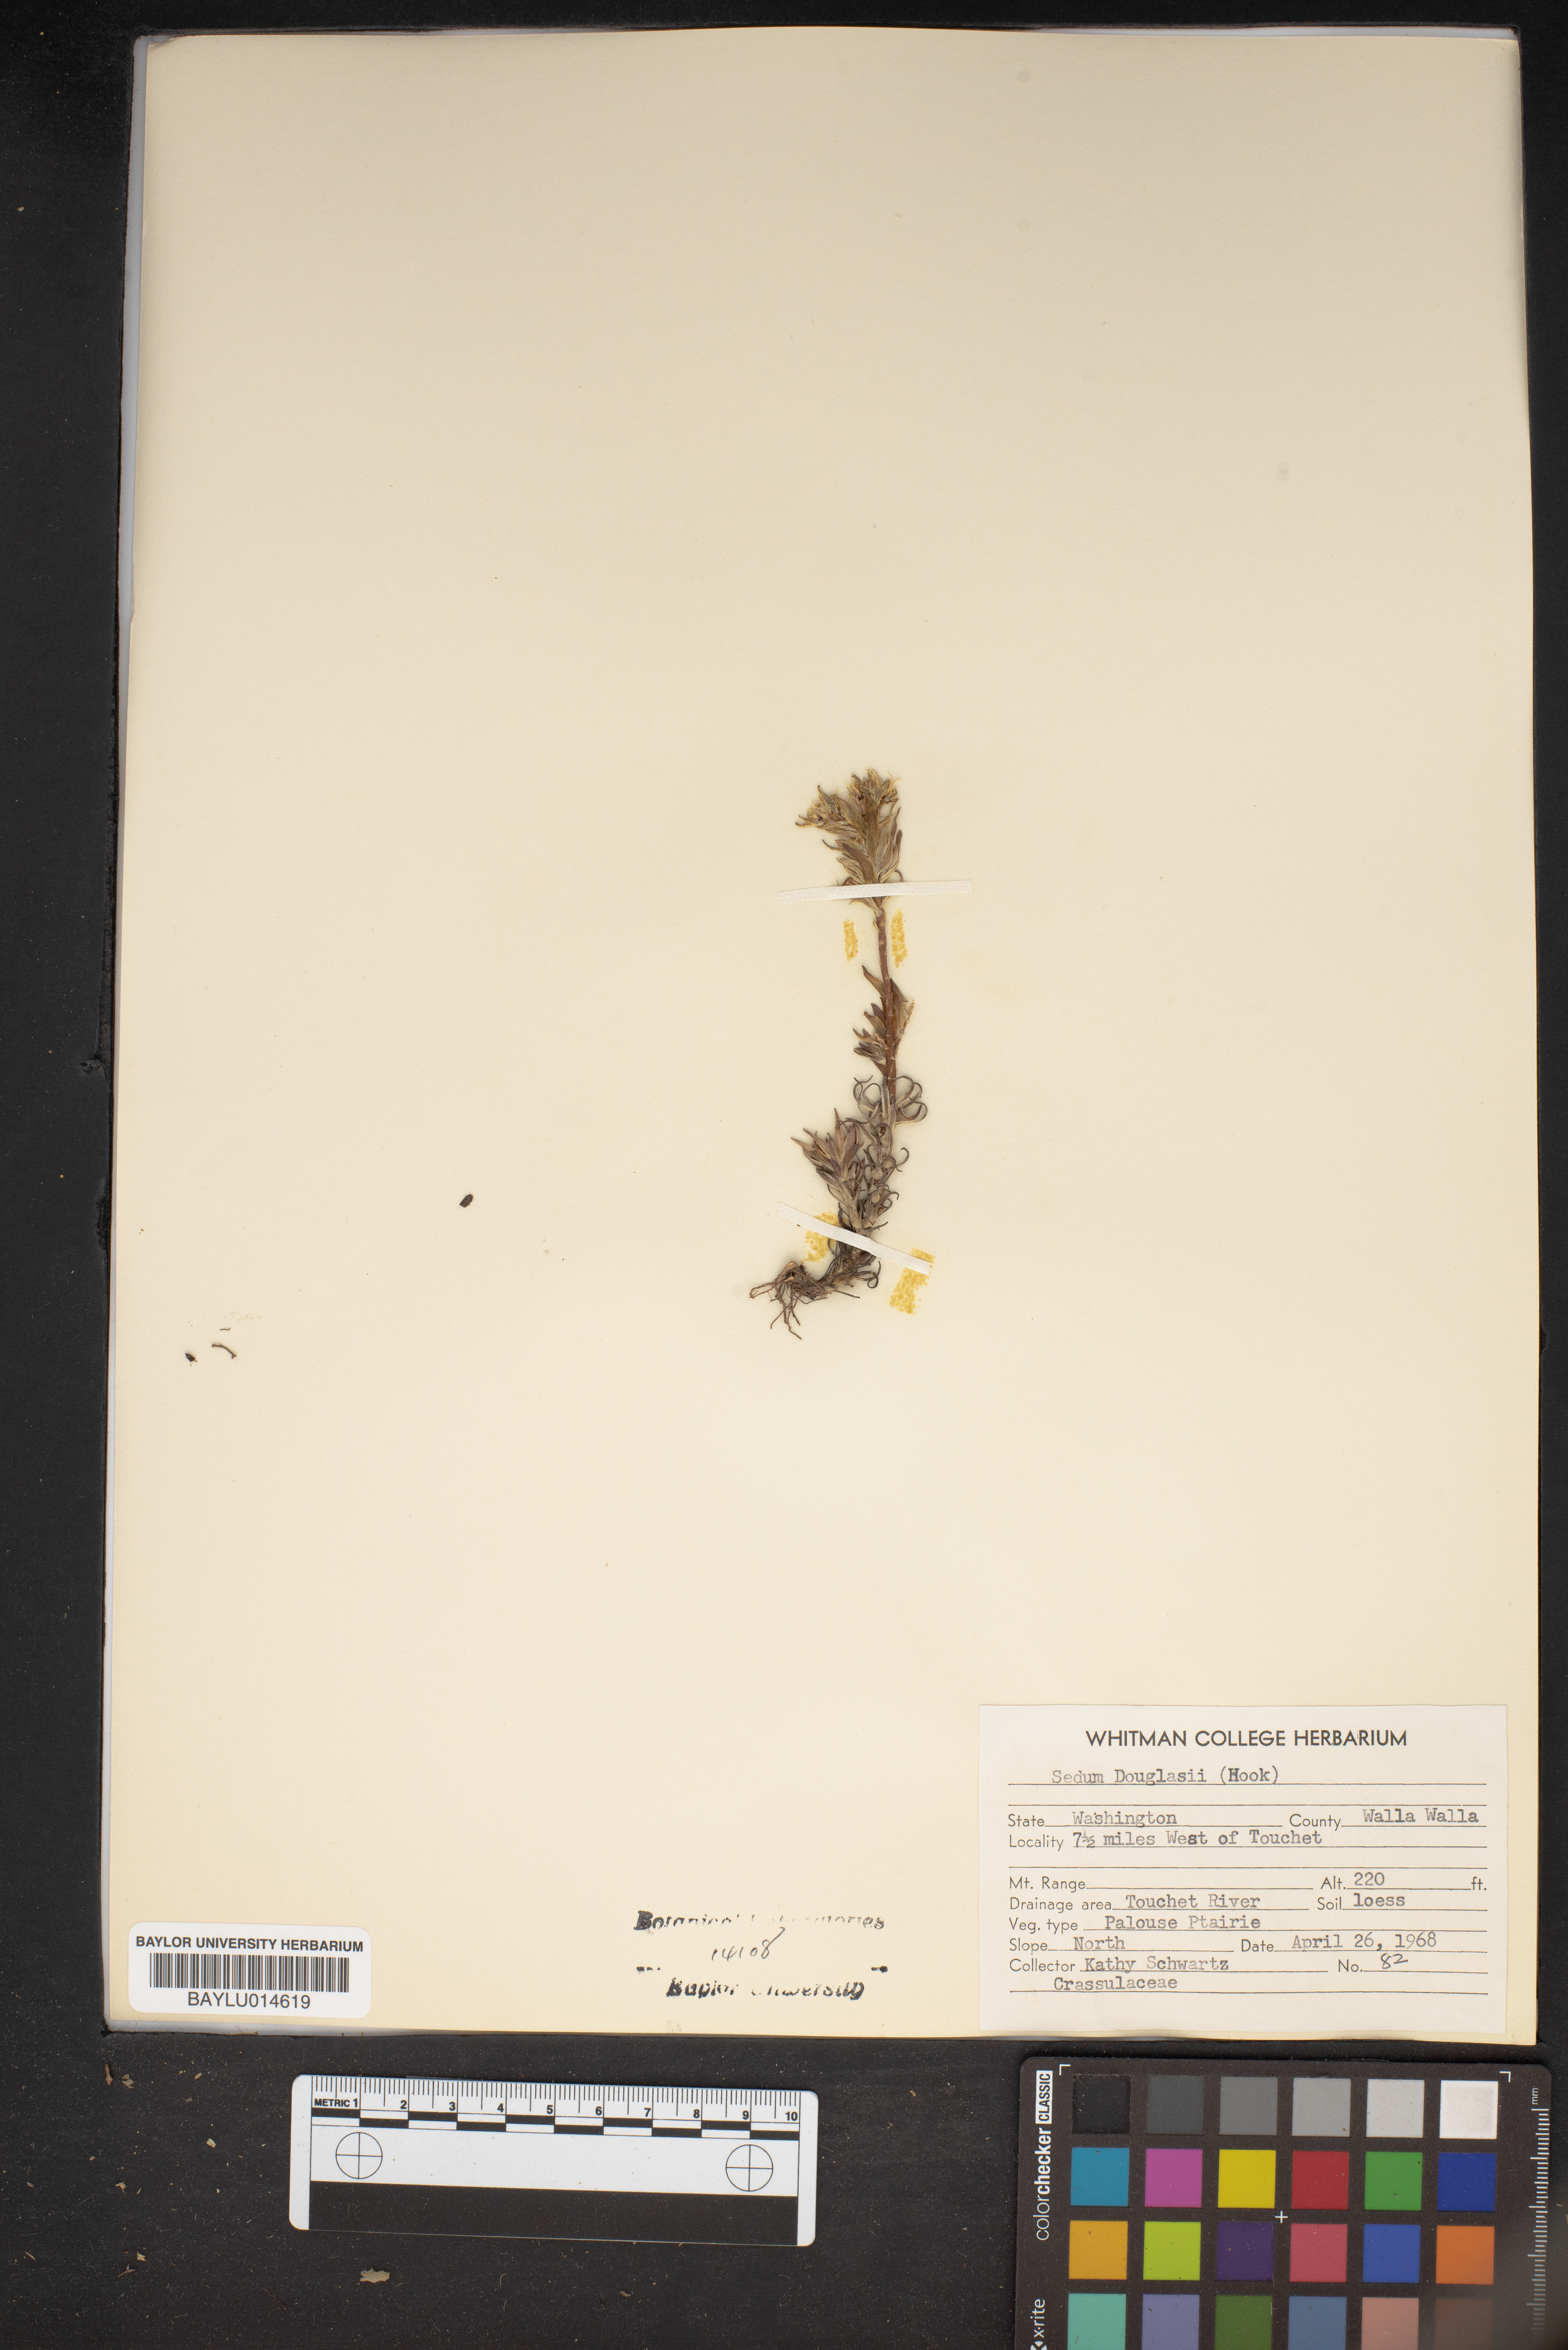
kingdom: Plantae
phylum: Tracheophyta
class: Magnoliopsida
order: Saxifragales
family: Crassulaceae
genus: Sedum
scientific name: Sedum stenopetalum
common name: Narrow-petaled stonecrop
